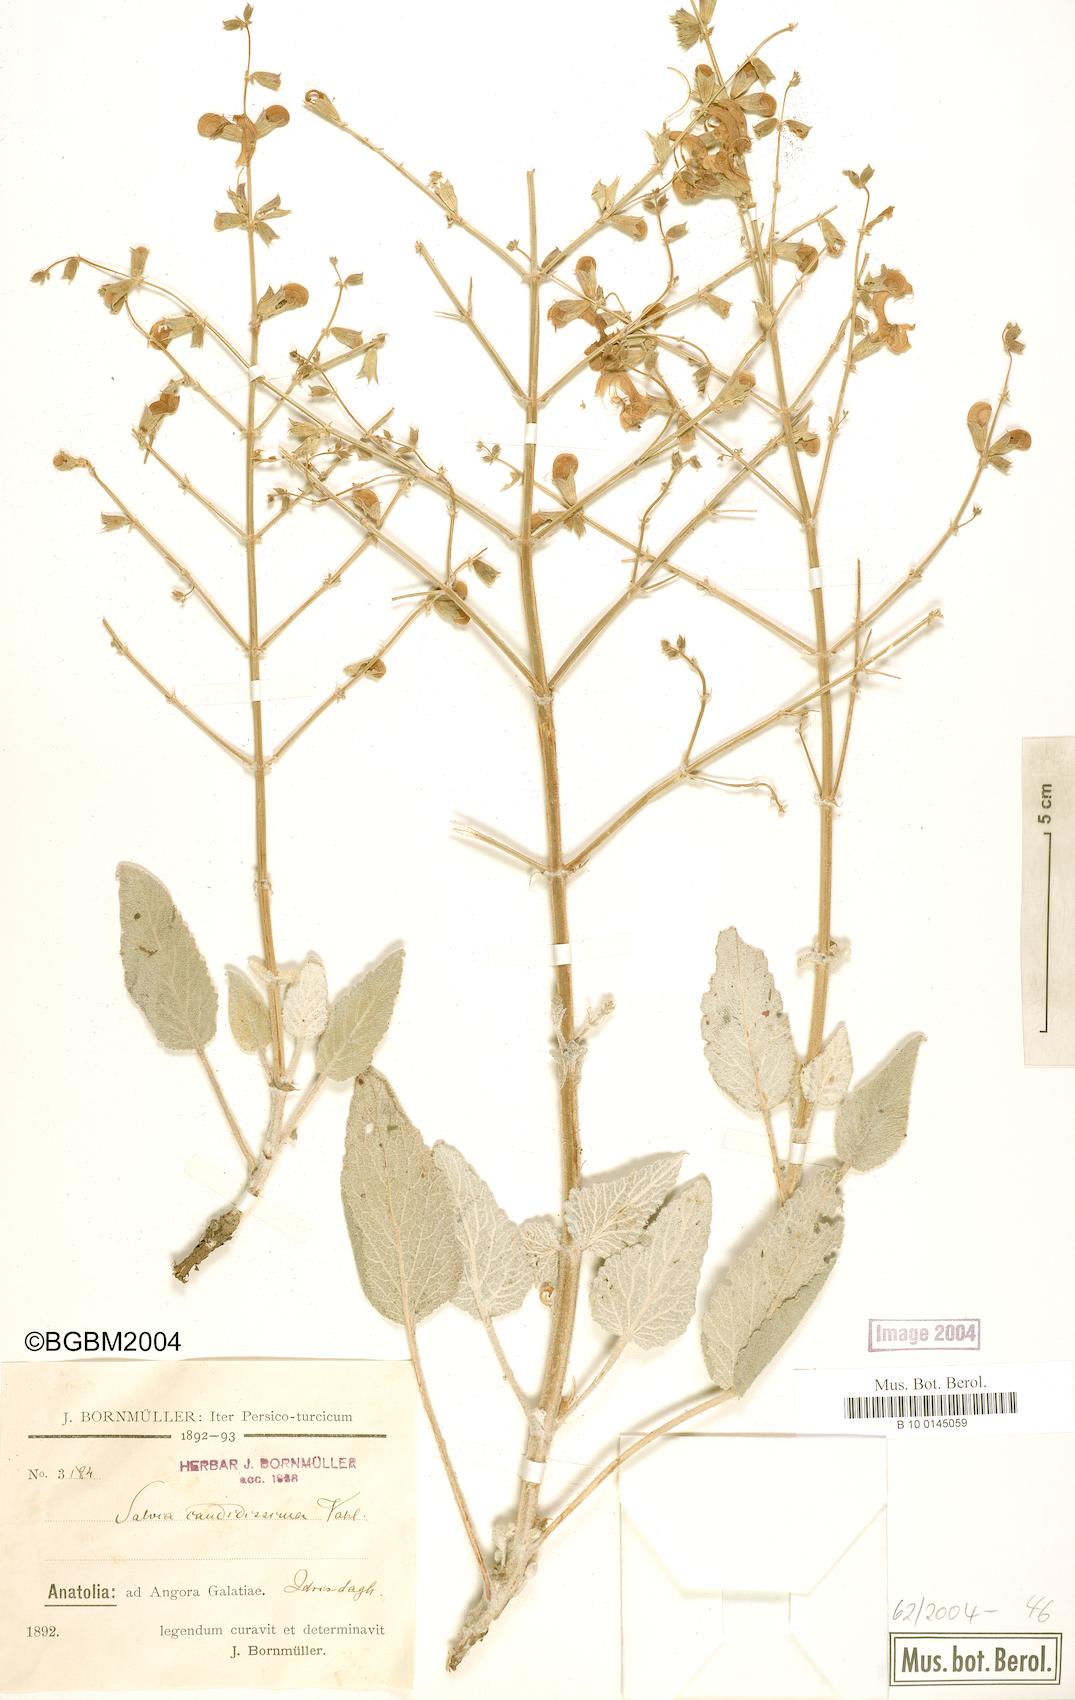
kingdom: Plantae
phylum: Tracheophyta
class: Magnoliopsida
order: Lamiales
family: Lamiaceae
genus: Salvia
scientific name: Salvia candidissima
